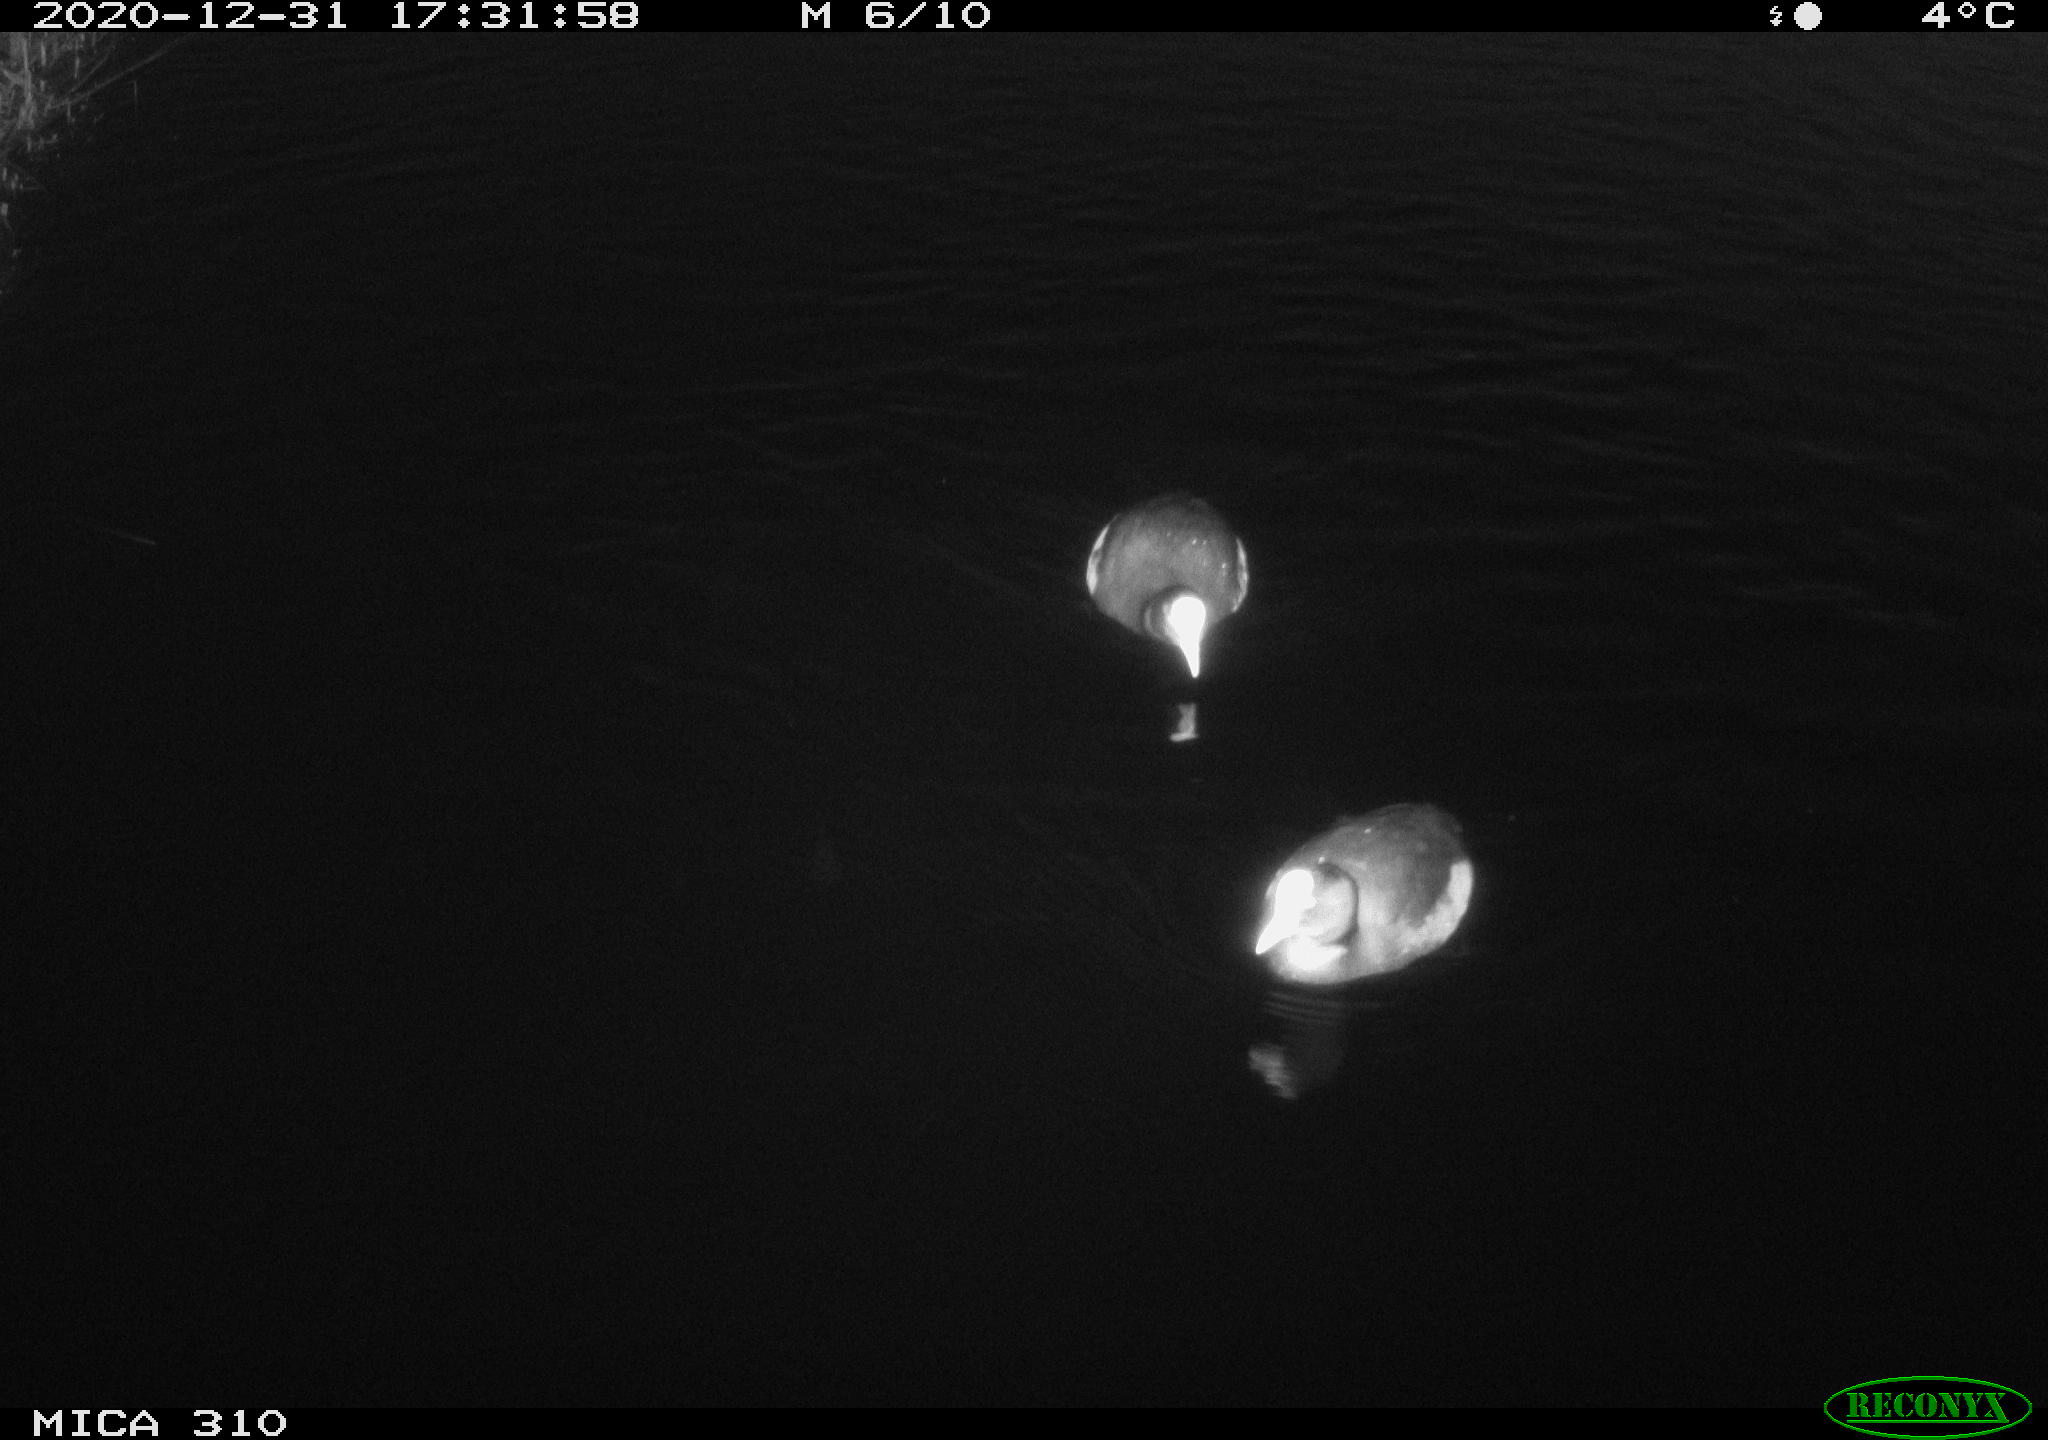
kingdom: Animalia
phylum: Chordata
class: Aves
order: Gruiformes
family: Rallidae
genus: Fulica
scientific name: Fulica atra
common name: Eurasian coot
